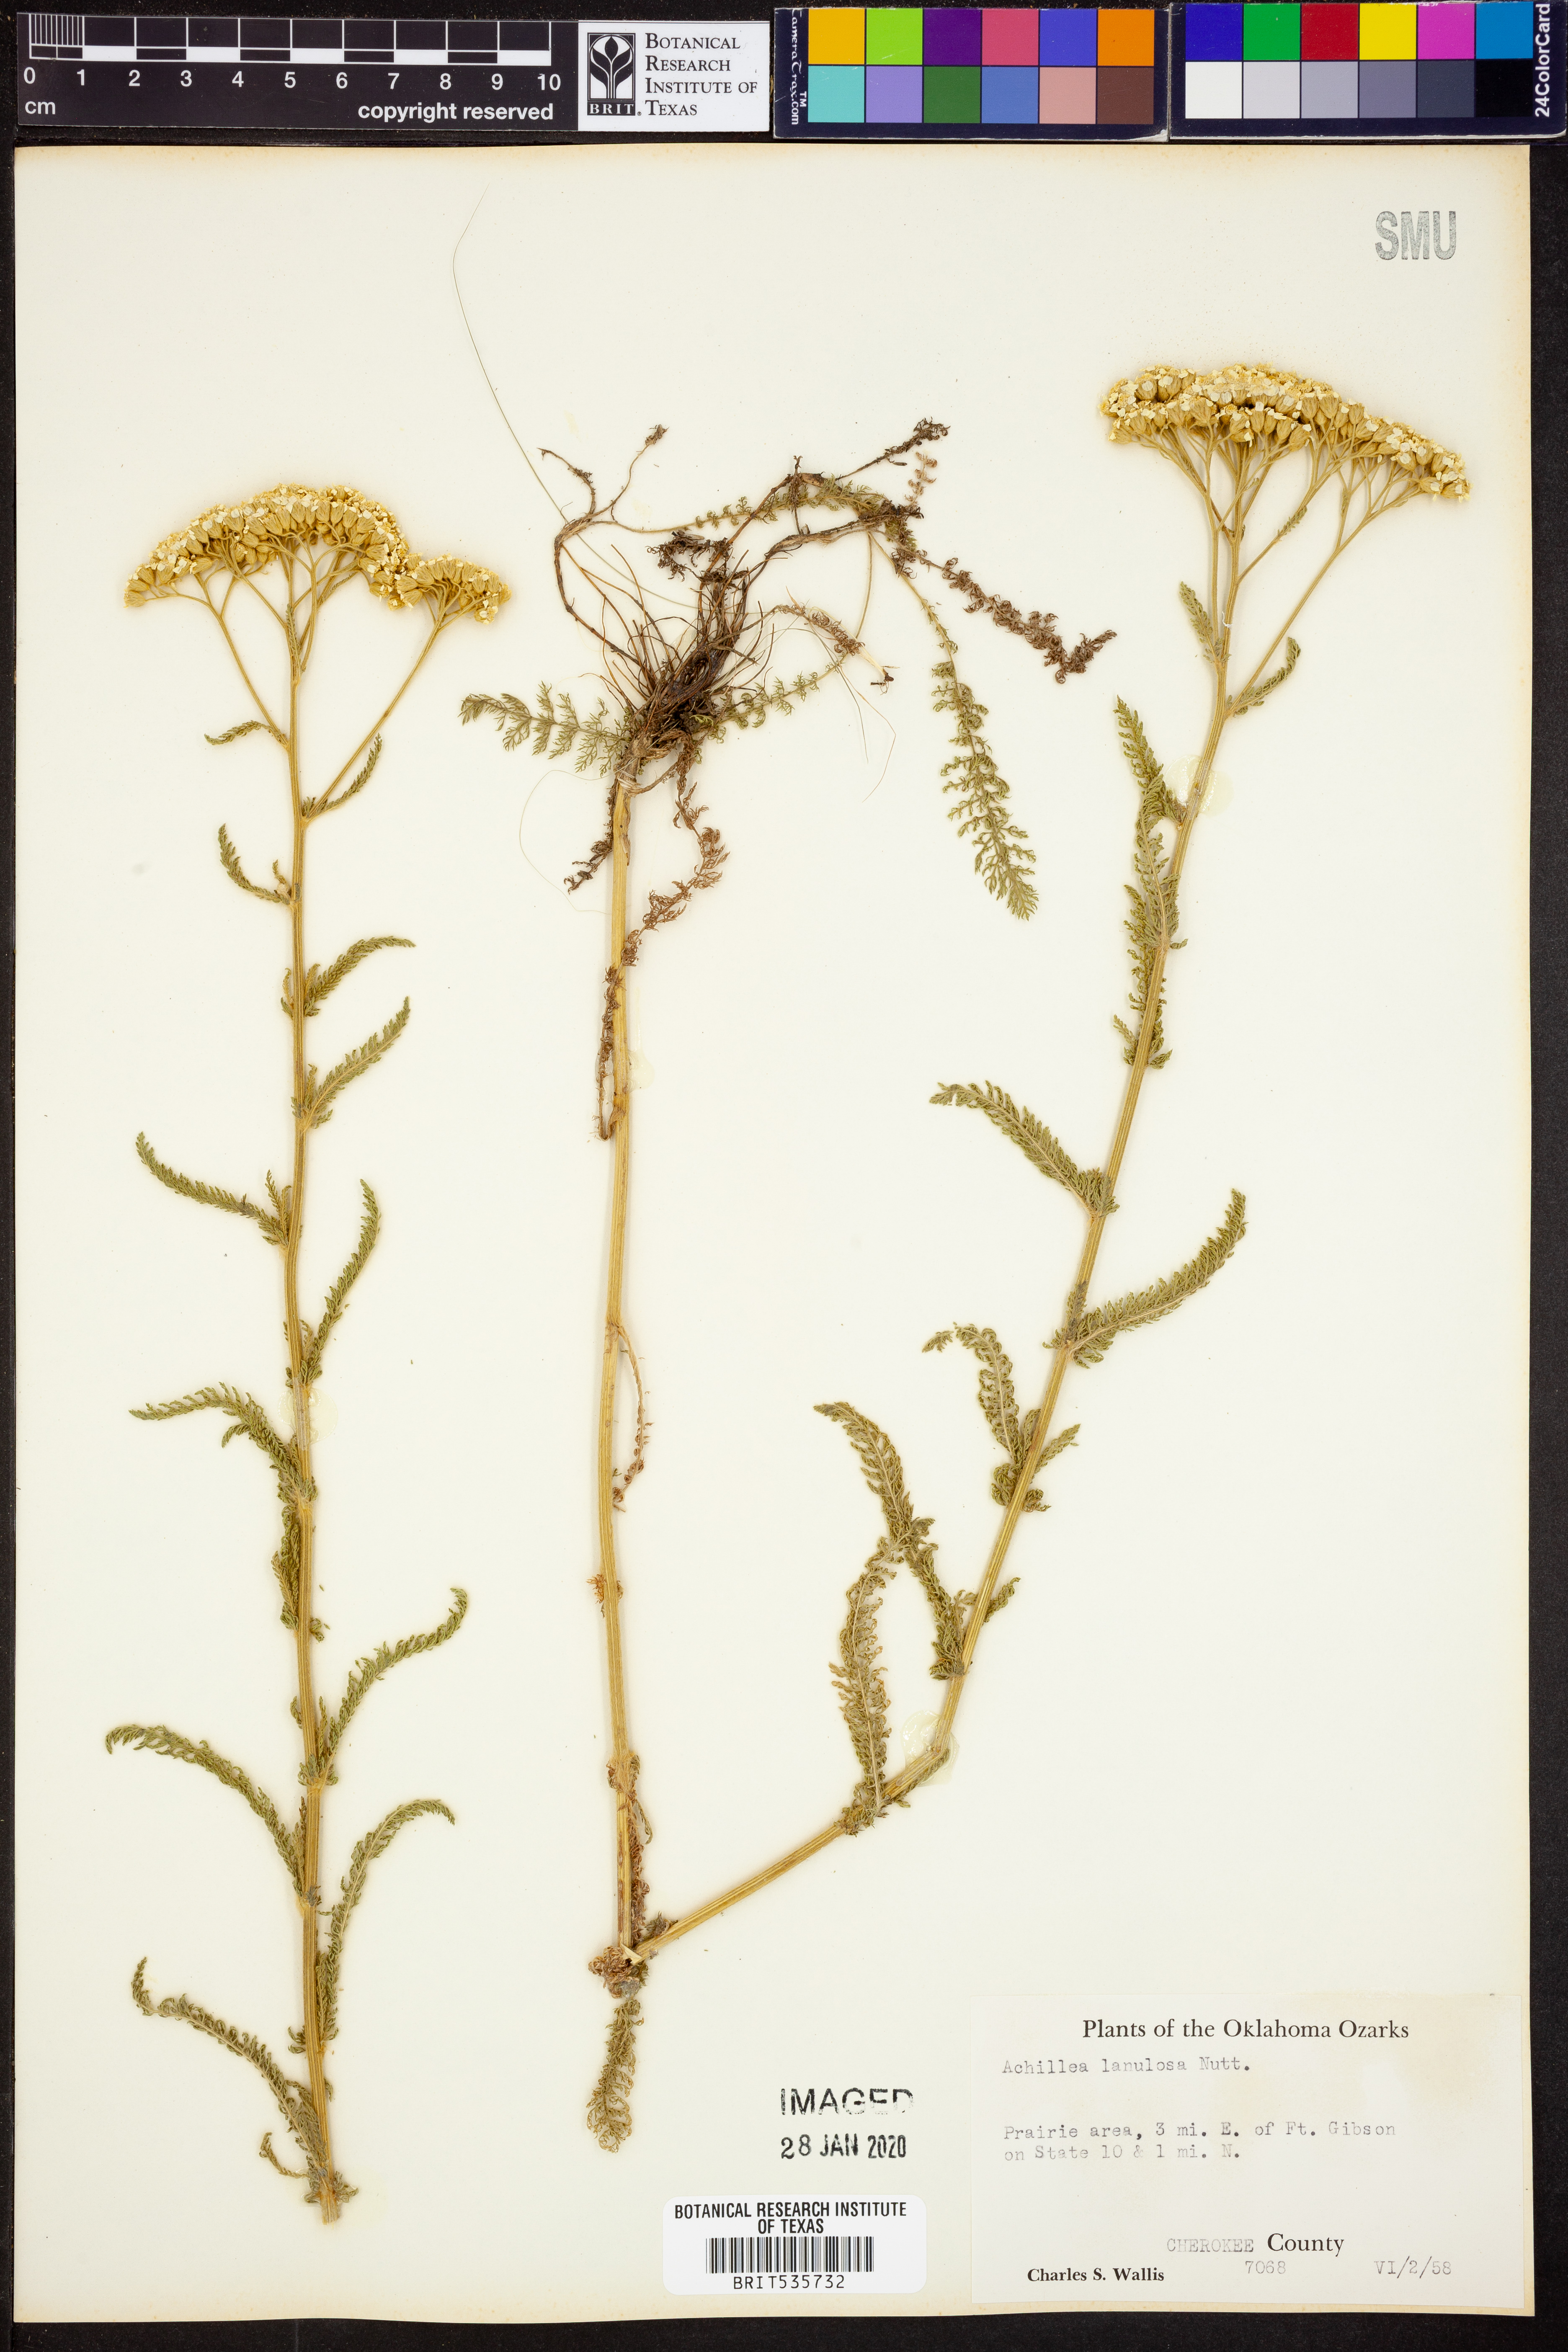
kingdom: Plantae
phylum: Tracheophyta
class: Magnoliopsida
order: Asterales
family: Asteraceae
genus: Achillea
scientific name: Achillea millefolium
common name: Yarrow
